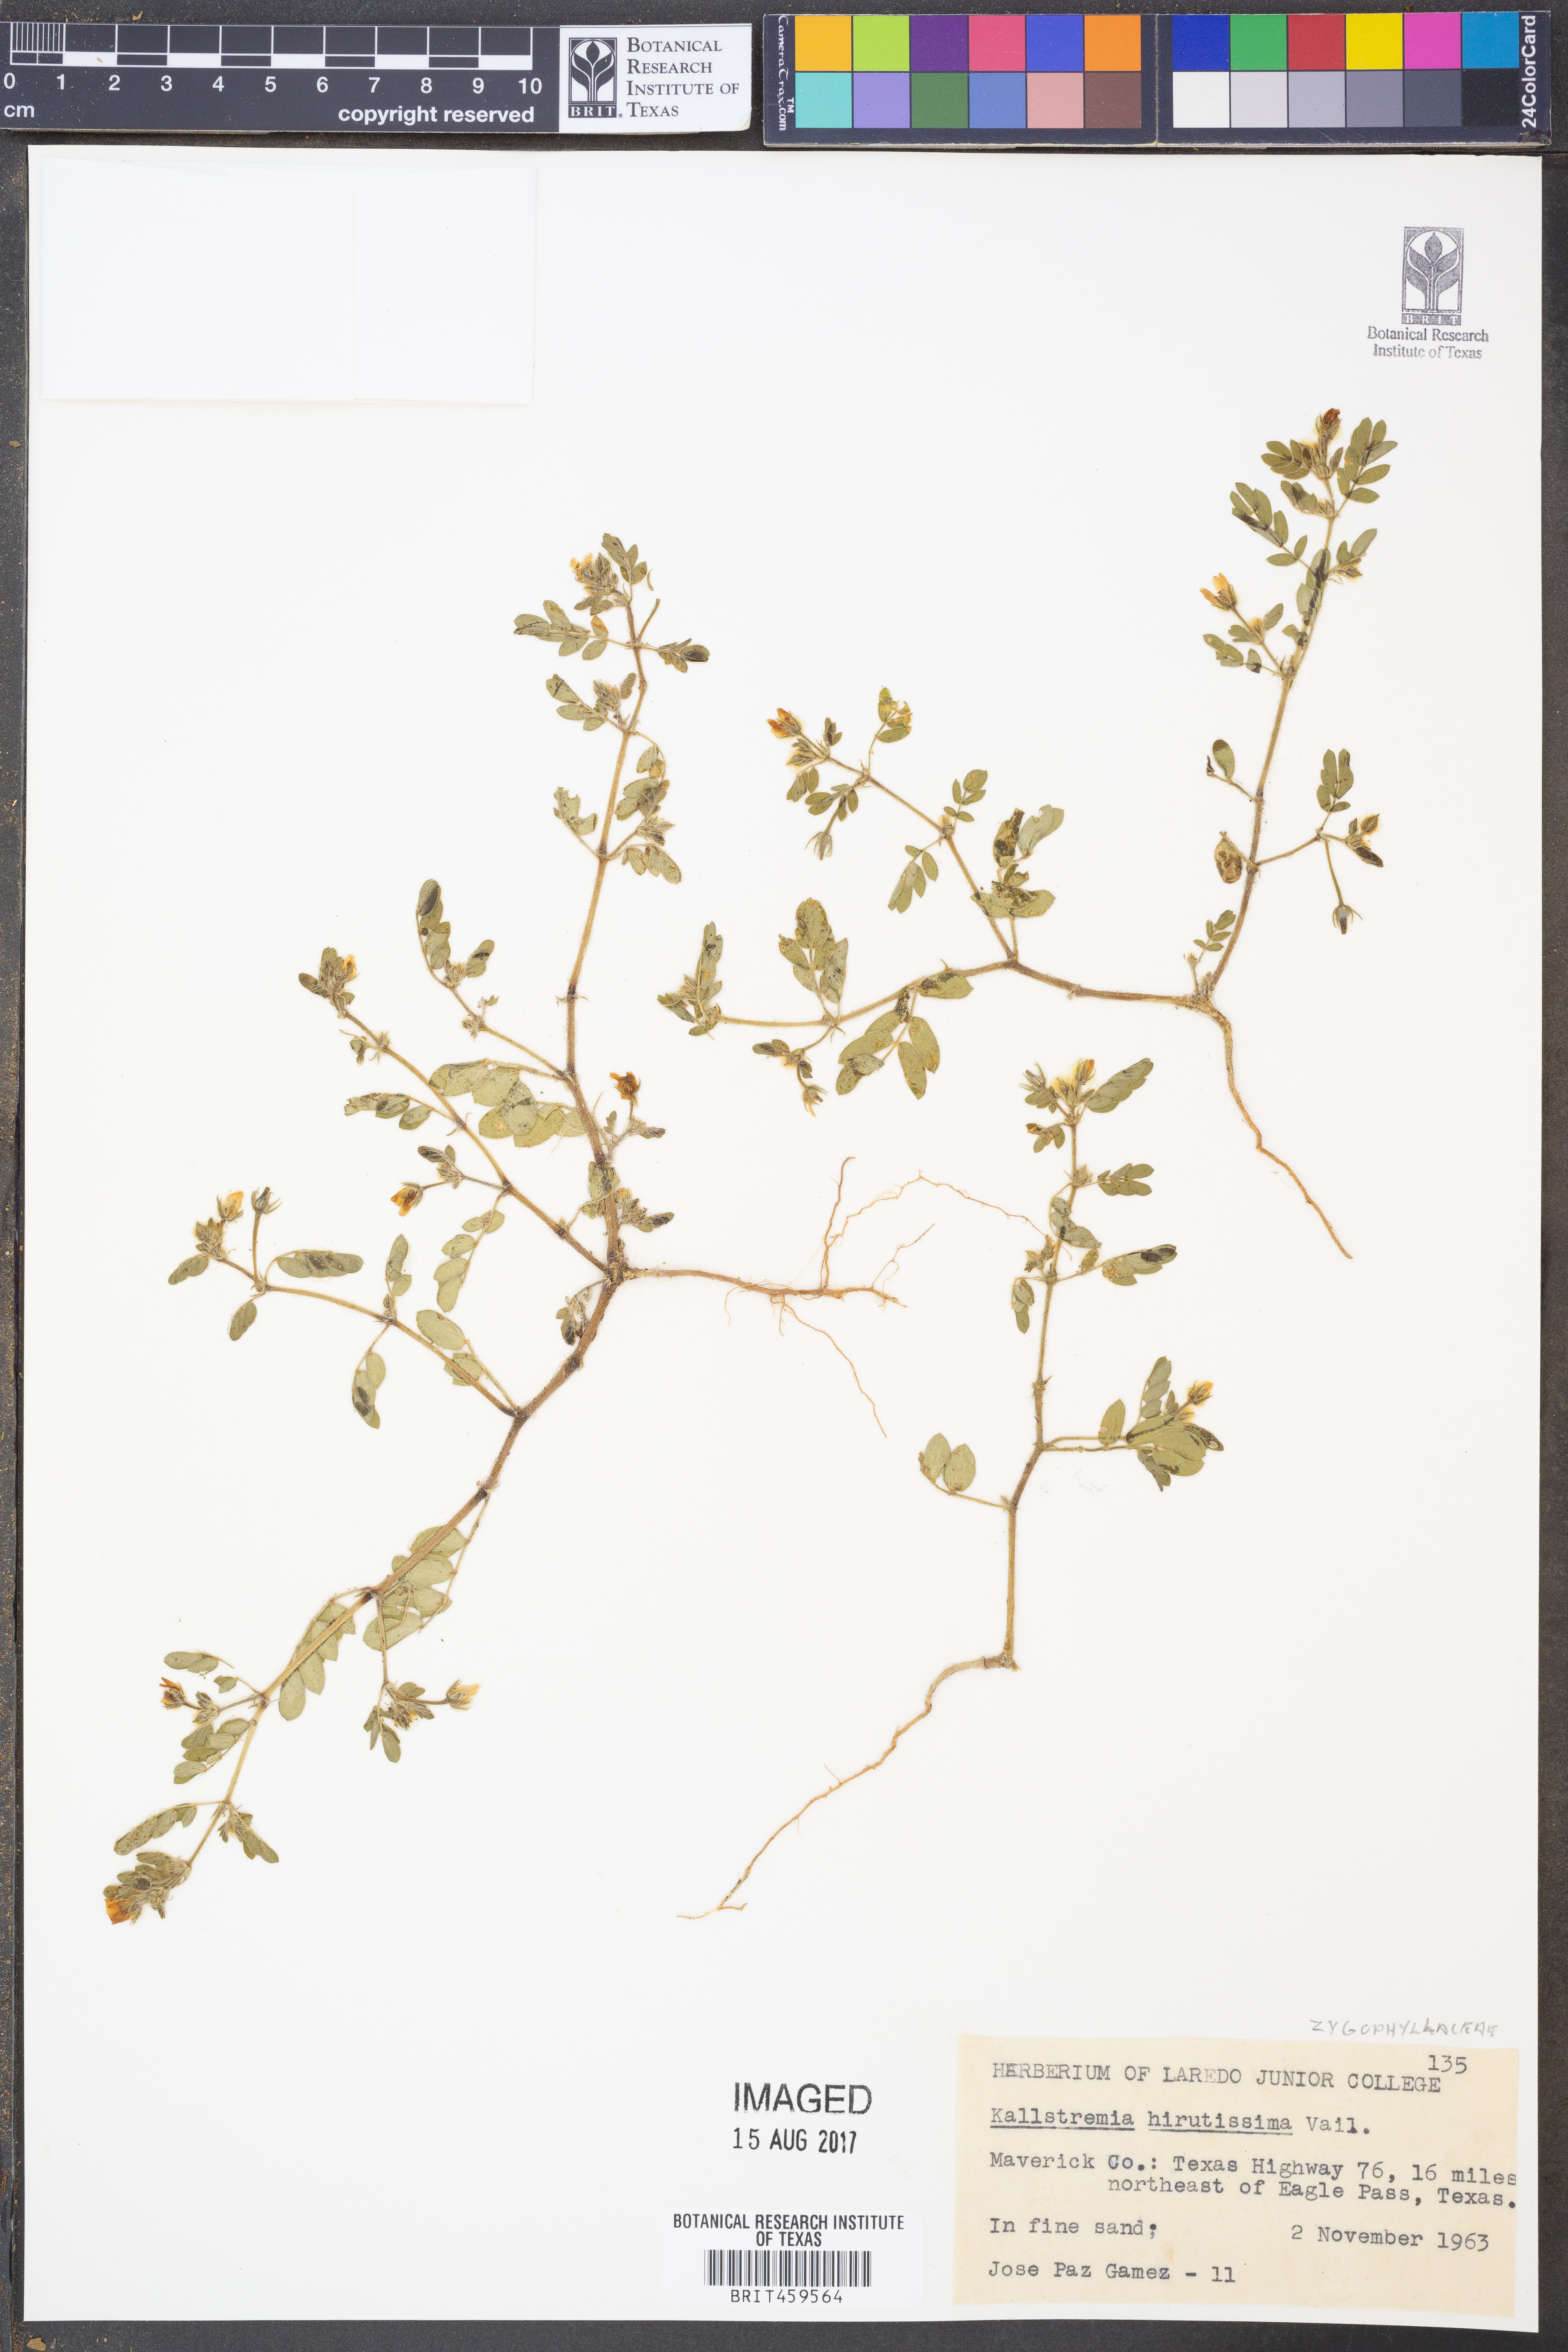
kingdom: Plantae
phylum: Tracheophyta
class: Magnoliopsida
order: Zygophyllales
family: Zygophyllaceae
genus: Kallstroemia
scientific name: Kallstroemia hirsutissima
